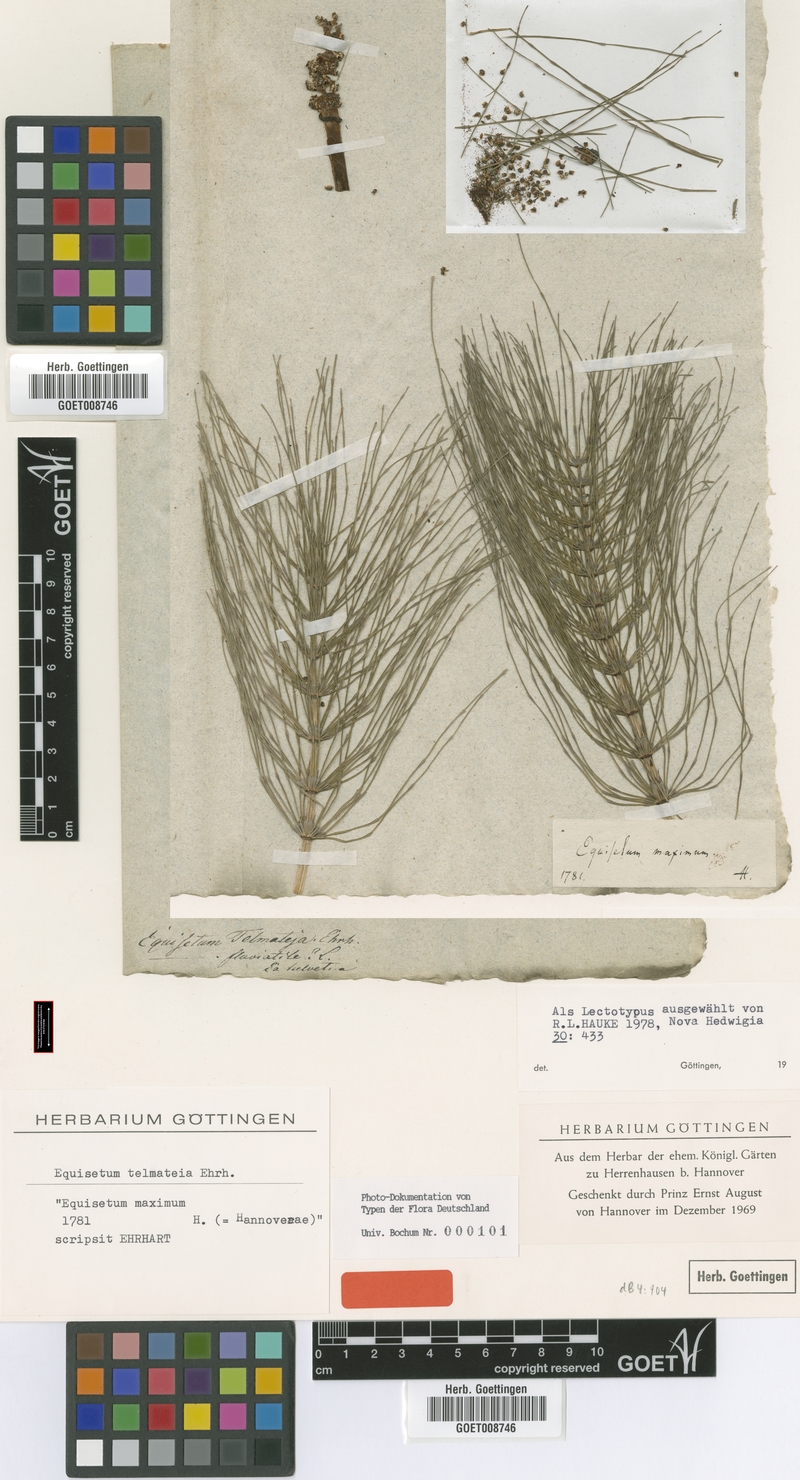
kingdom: Plantae
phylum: Tracheophyta
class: Polypodiopsida
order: Equisetales
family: Equisetaceae
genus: Equisetum
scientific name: Equisetum telmateia
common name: Great horsetail
